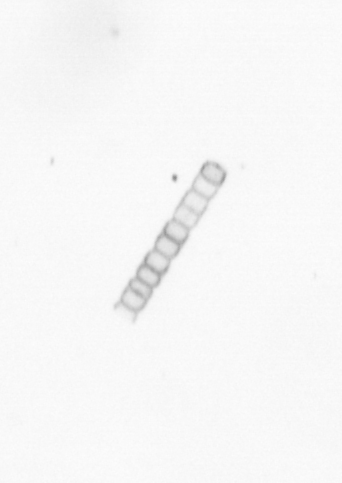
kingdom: Chromista
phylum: Ochrophyta
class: Bacillariophyceae
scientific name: Bacillariophyceae
